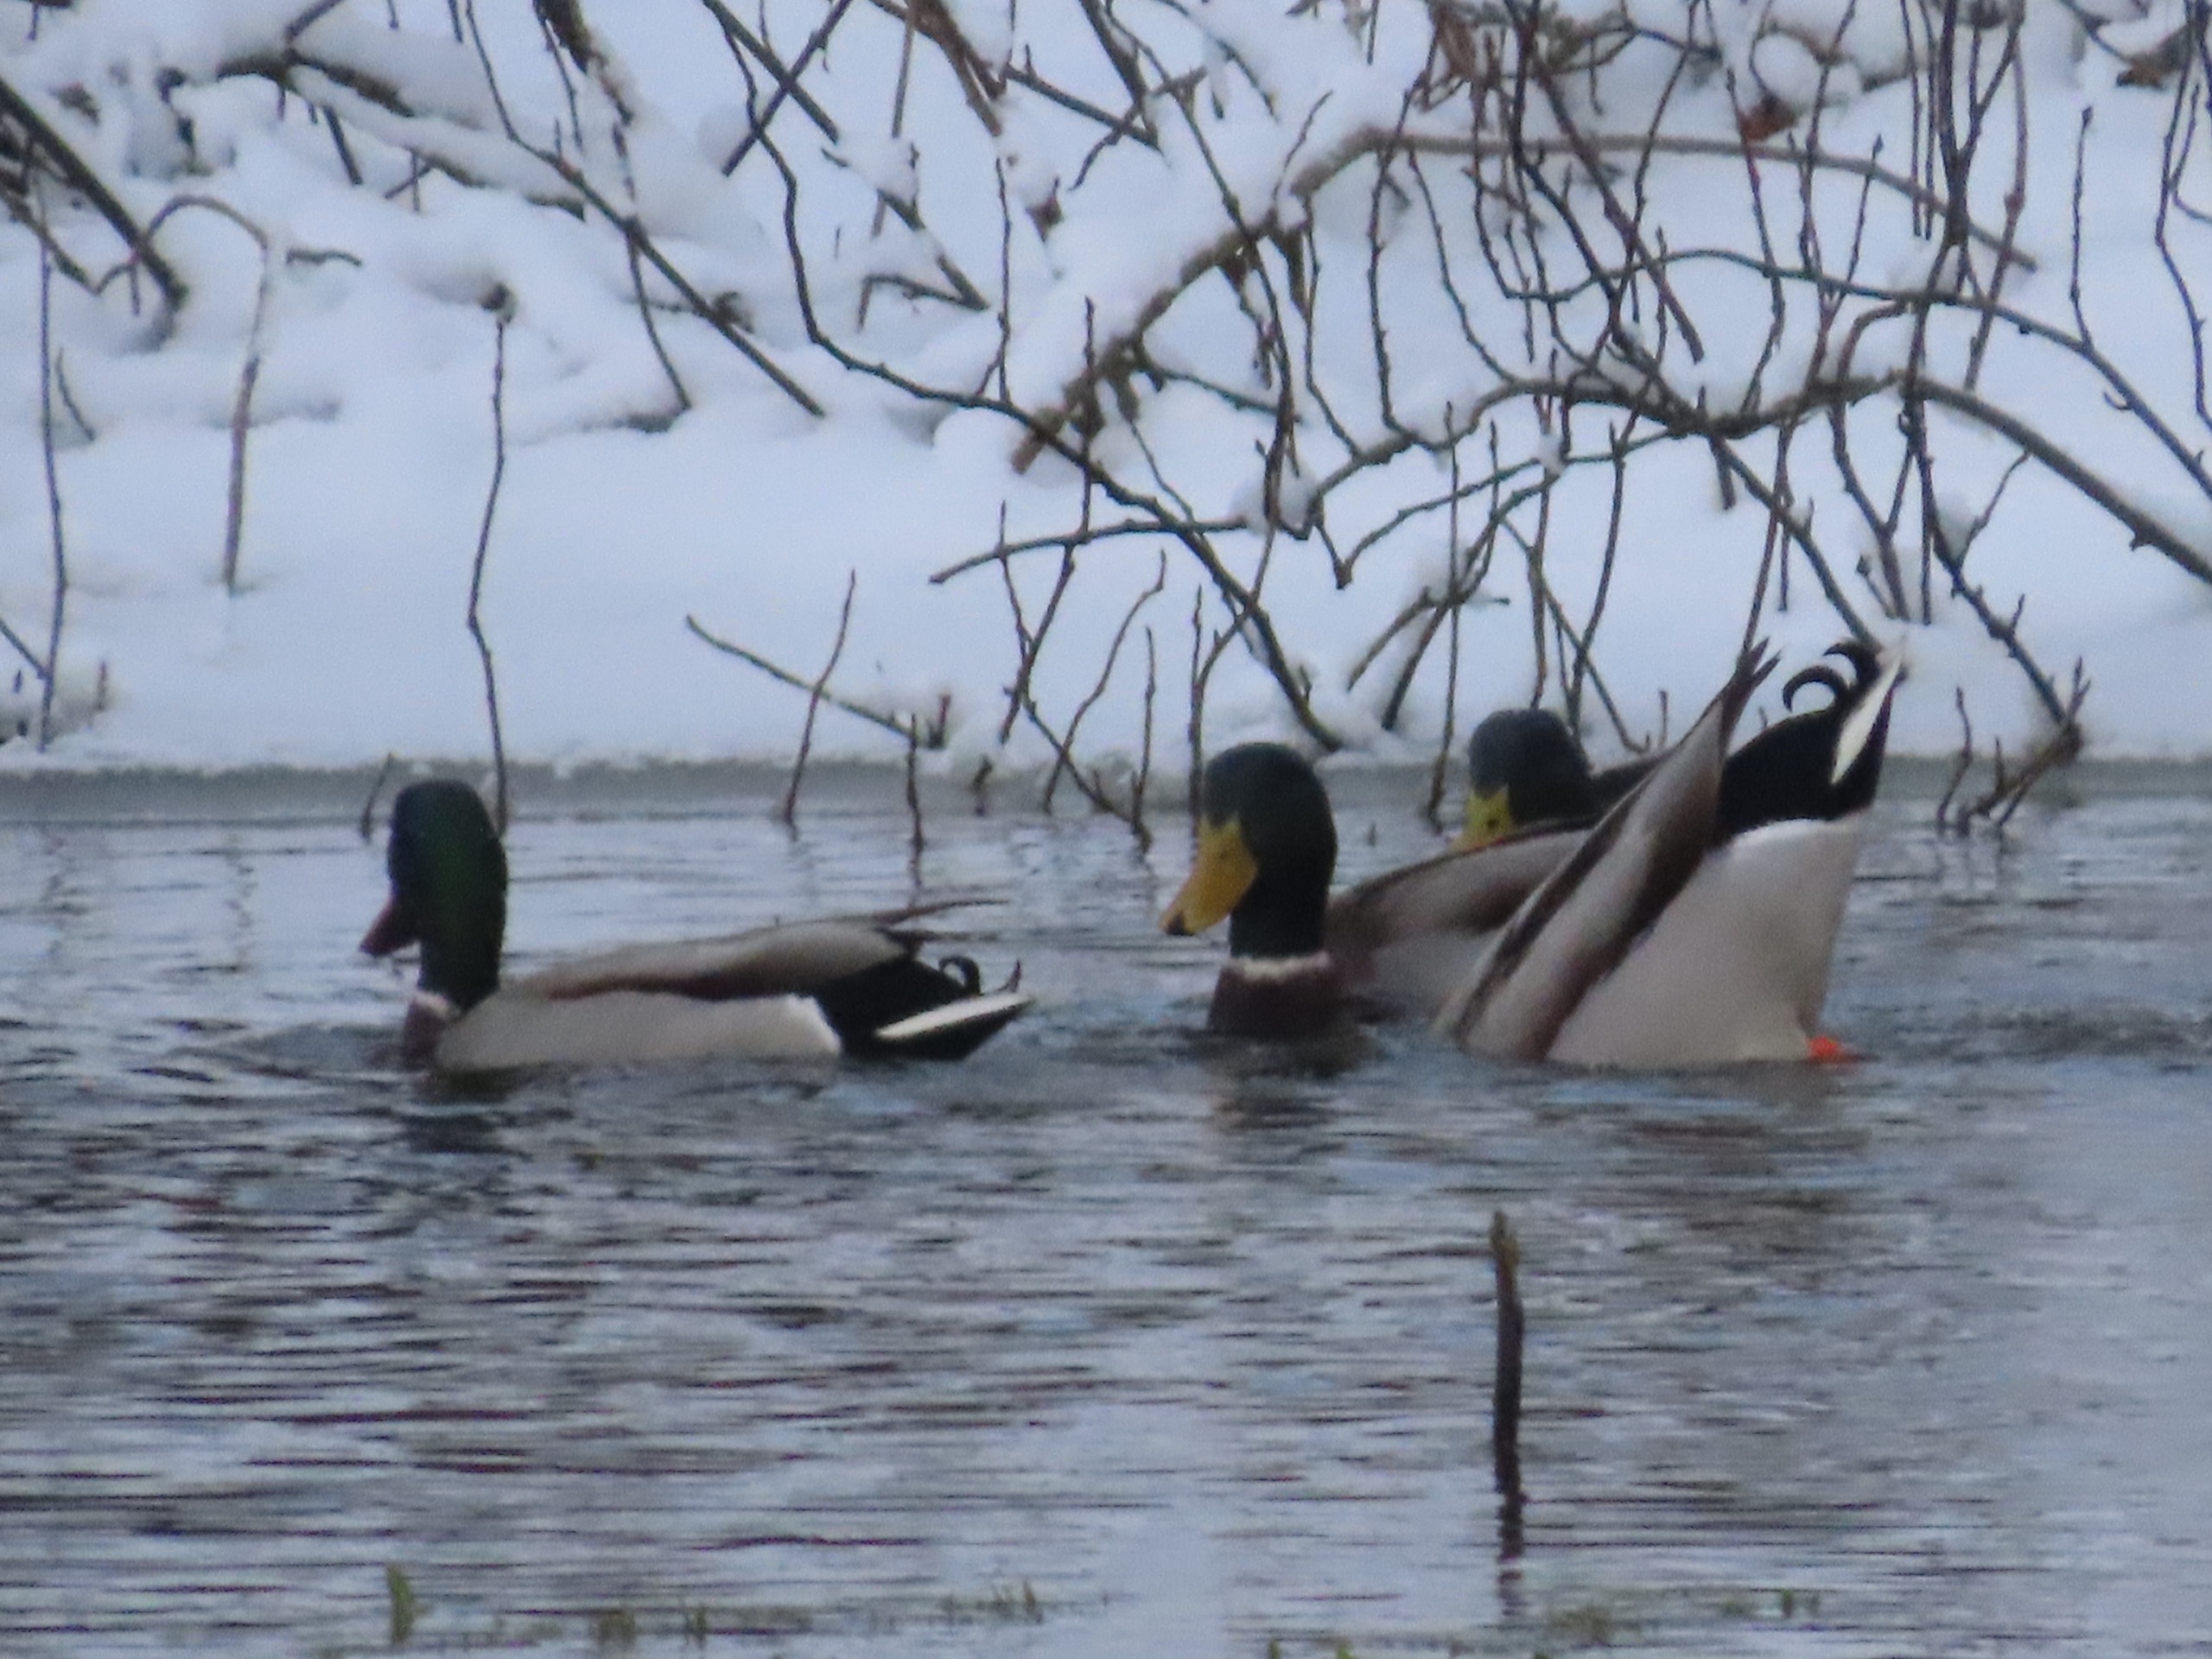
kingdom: Animalia
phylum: Chordata
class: Aves
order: Anseriformes
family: Anatidae
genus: Anas
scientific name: Anas platyrhynchos
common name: Gråand
